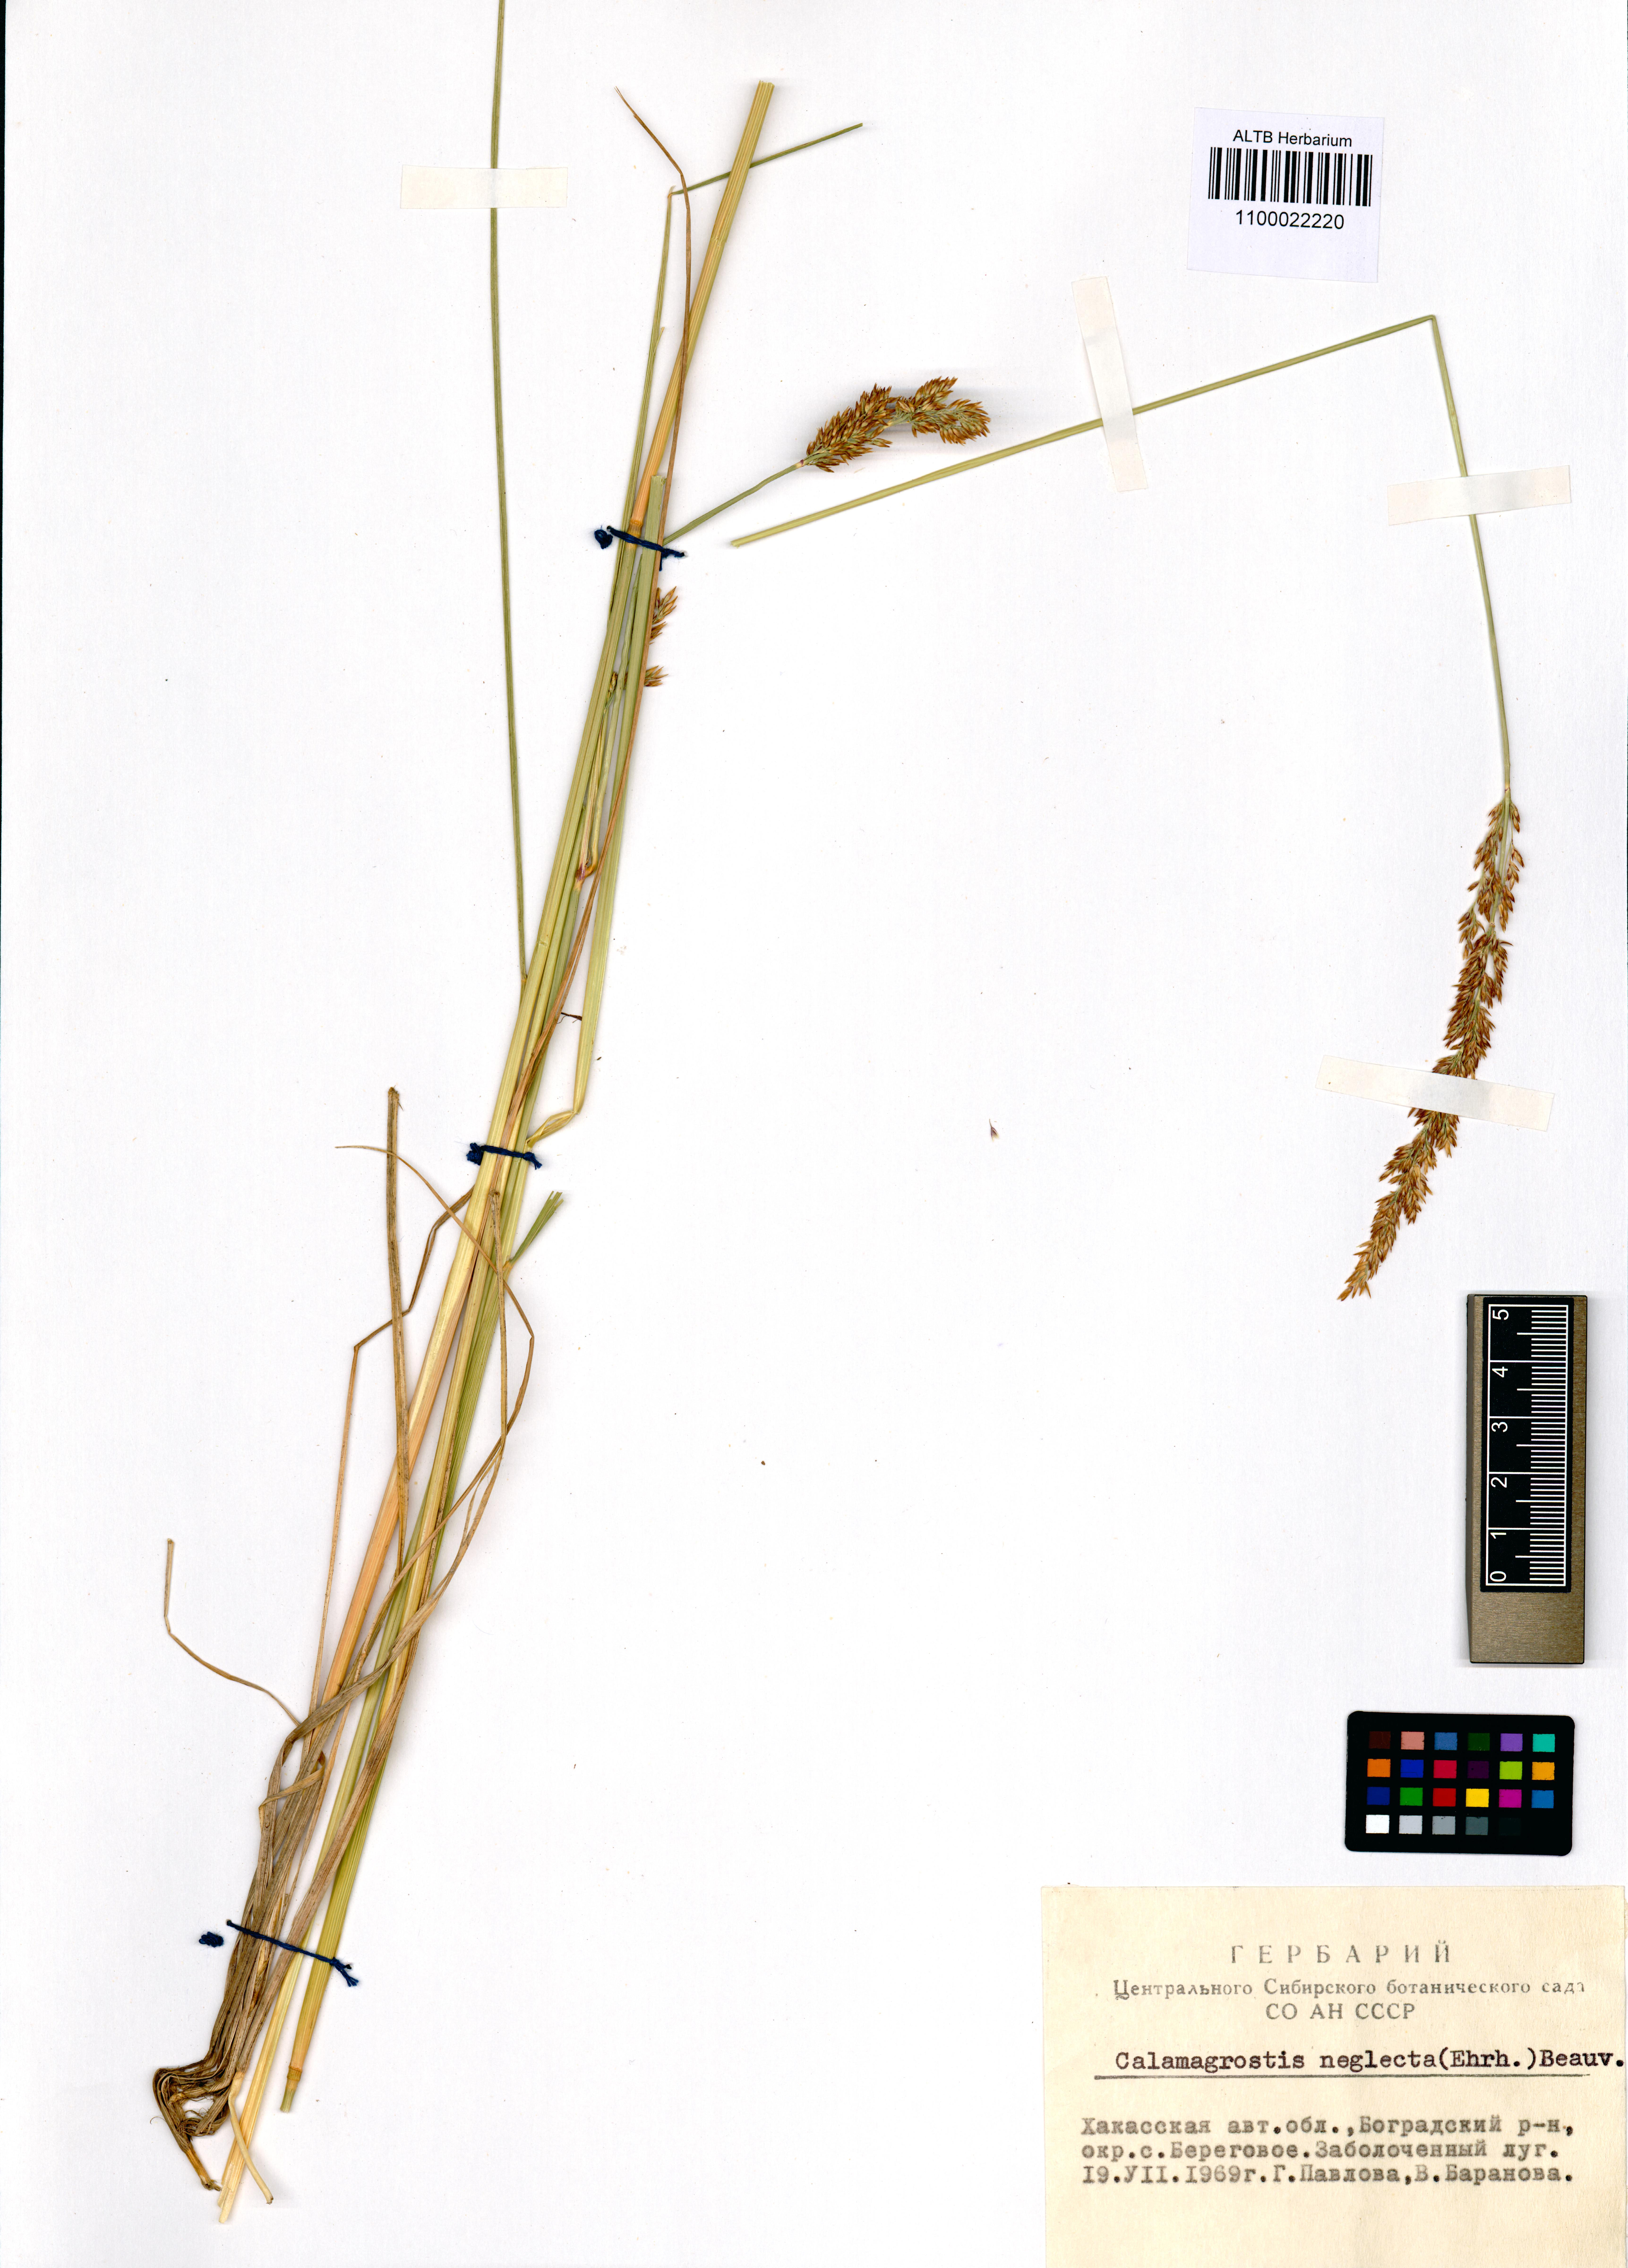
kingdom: Plantae
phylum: Tracheophyta
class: Liliopsida
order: Poales
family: Poaceae
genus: Achnatherum
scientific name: Achnatherum calamagrostis
